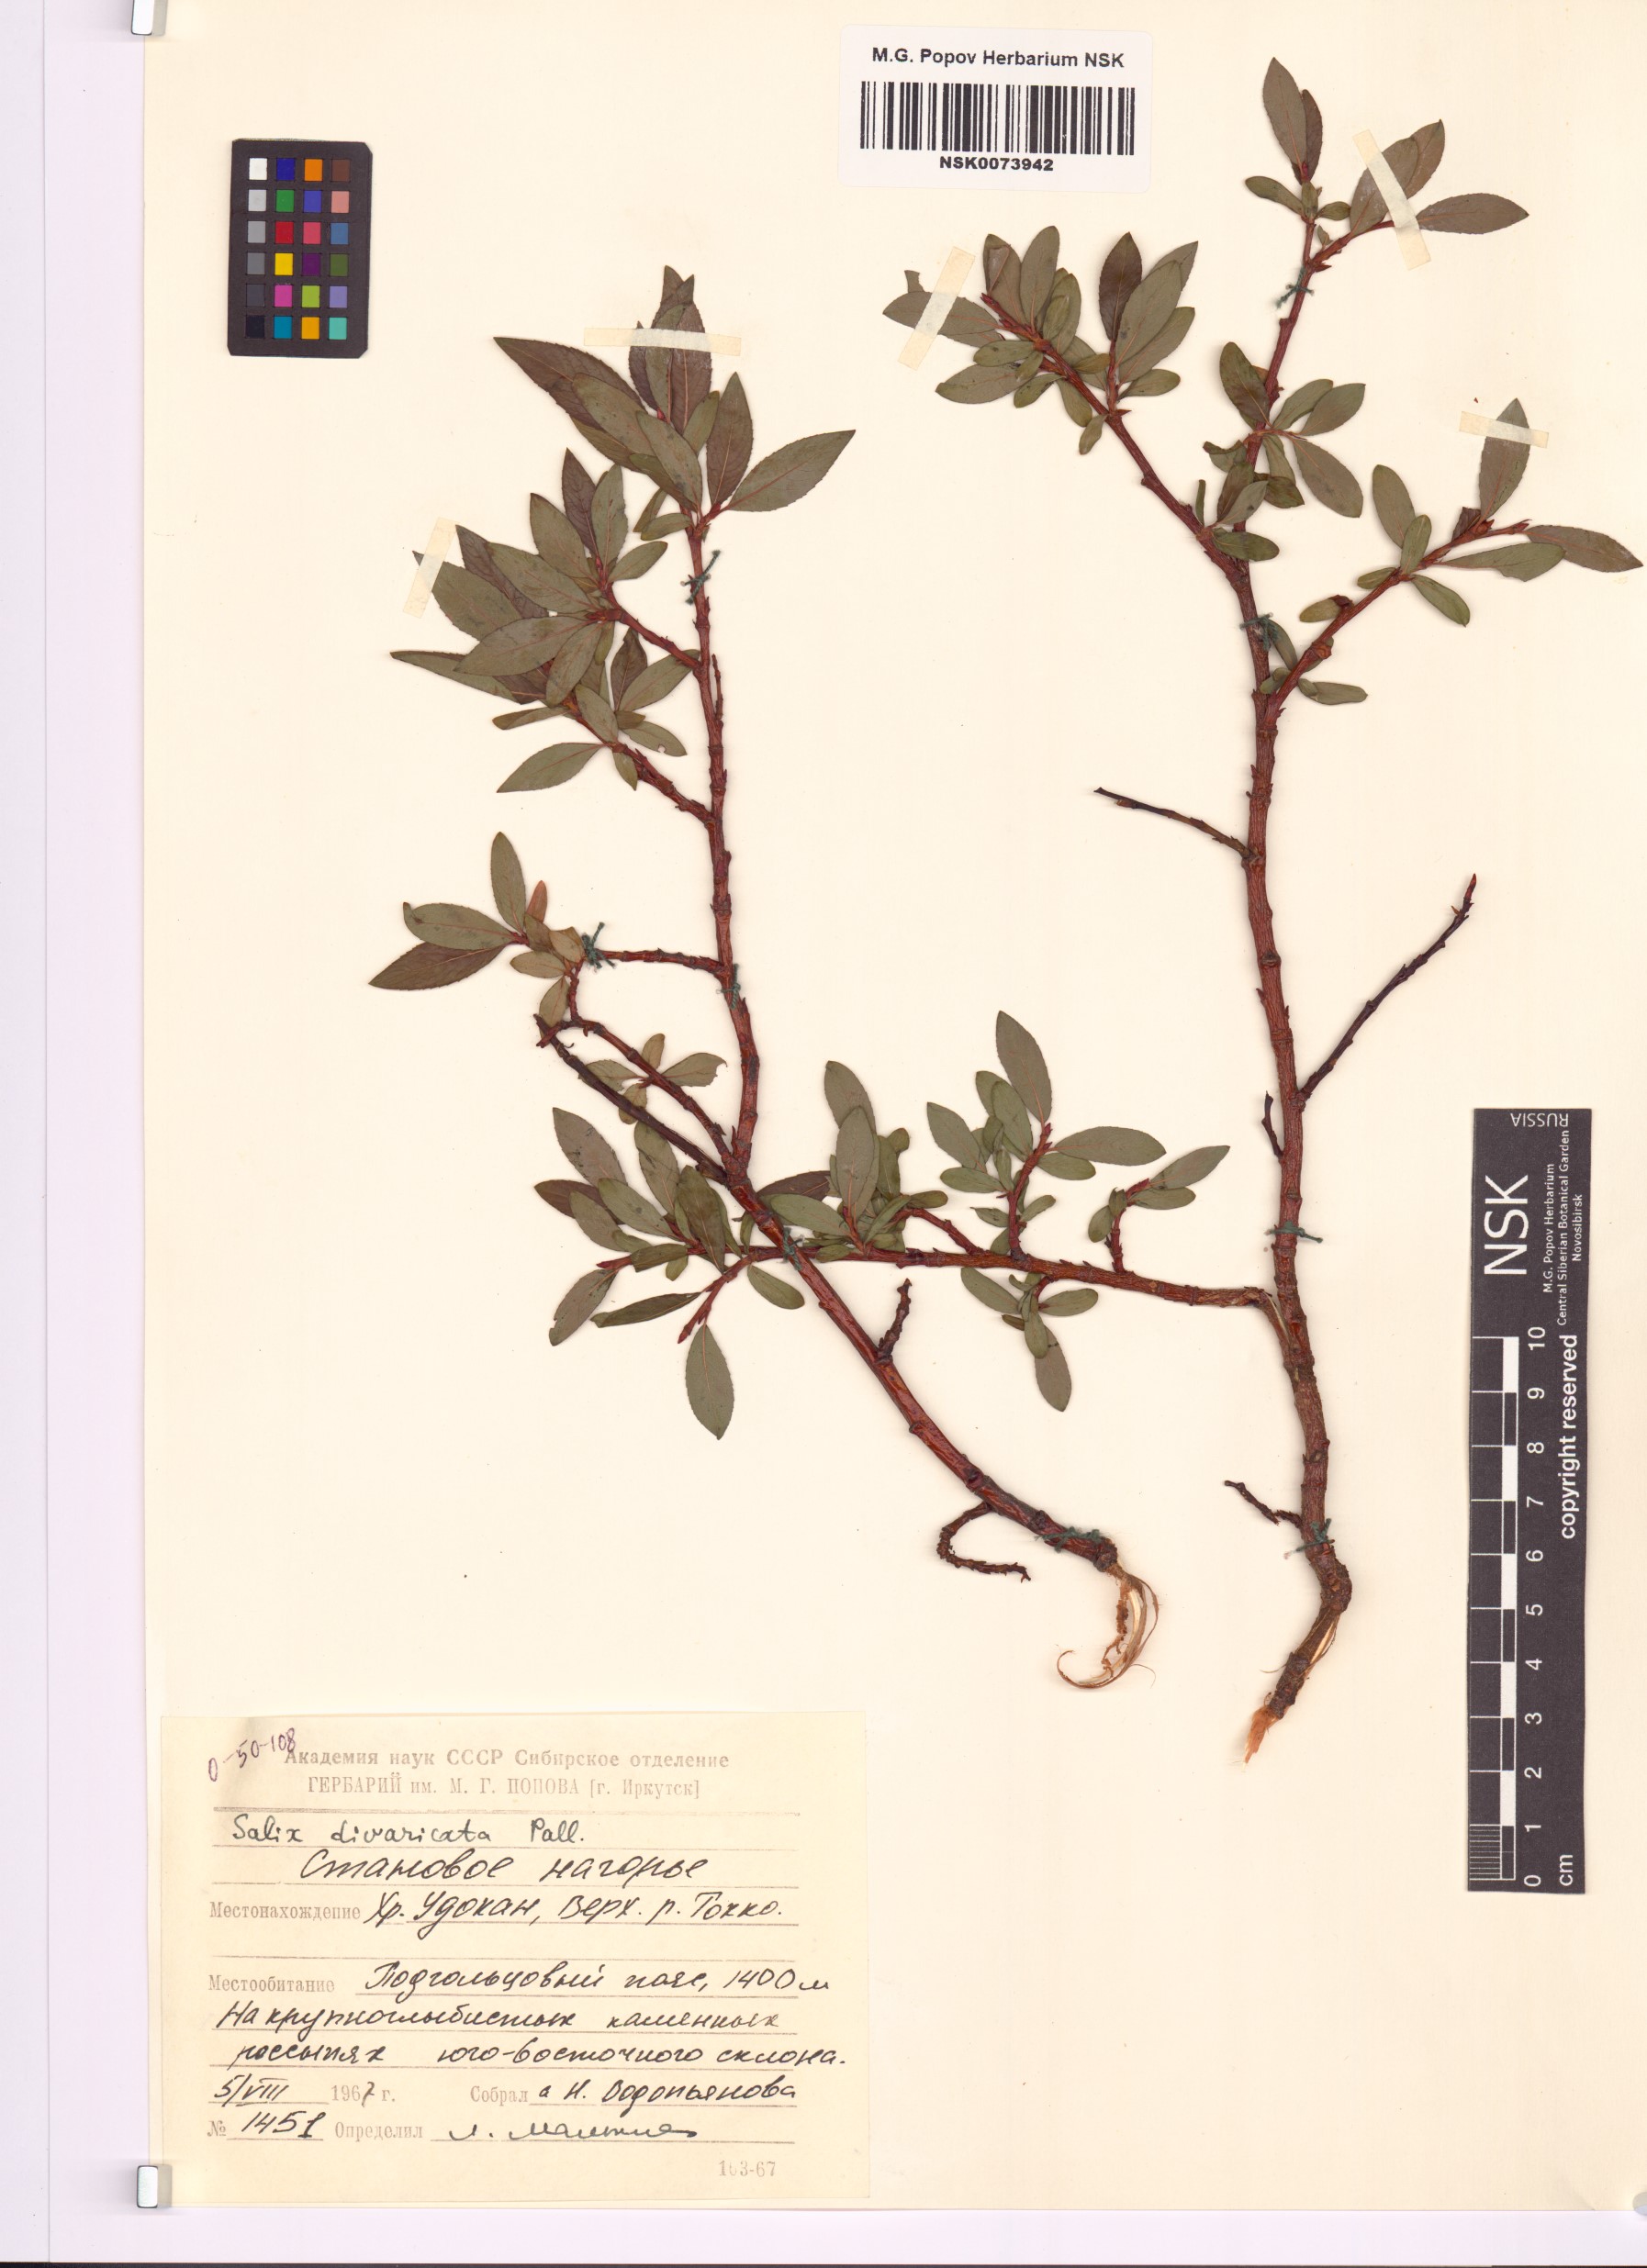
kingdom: Plantae
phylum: Tracheophyta
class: Magnoliopsida
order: Malpighiales
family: Salicaceae
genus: Salix
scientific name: Salix divaricata
